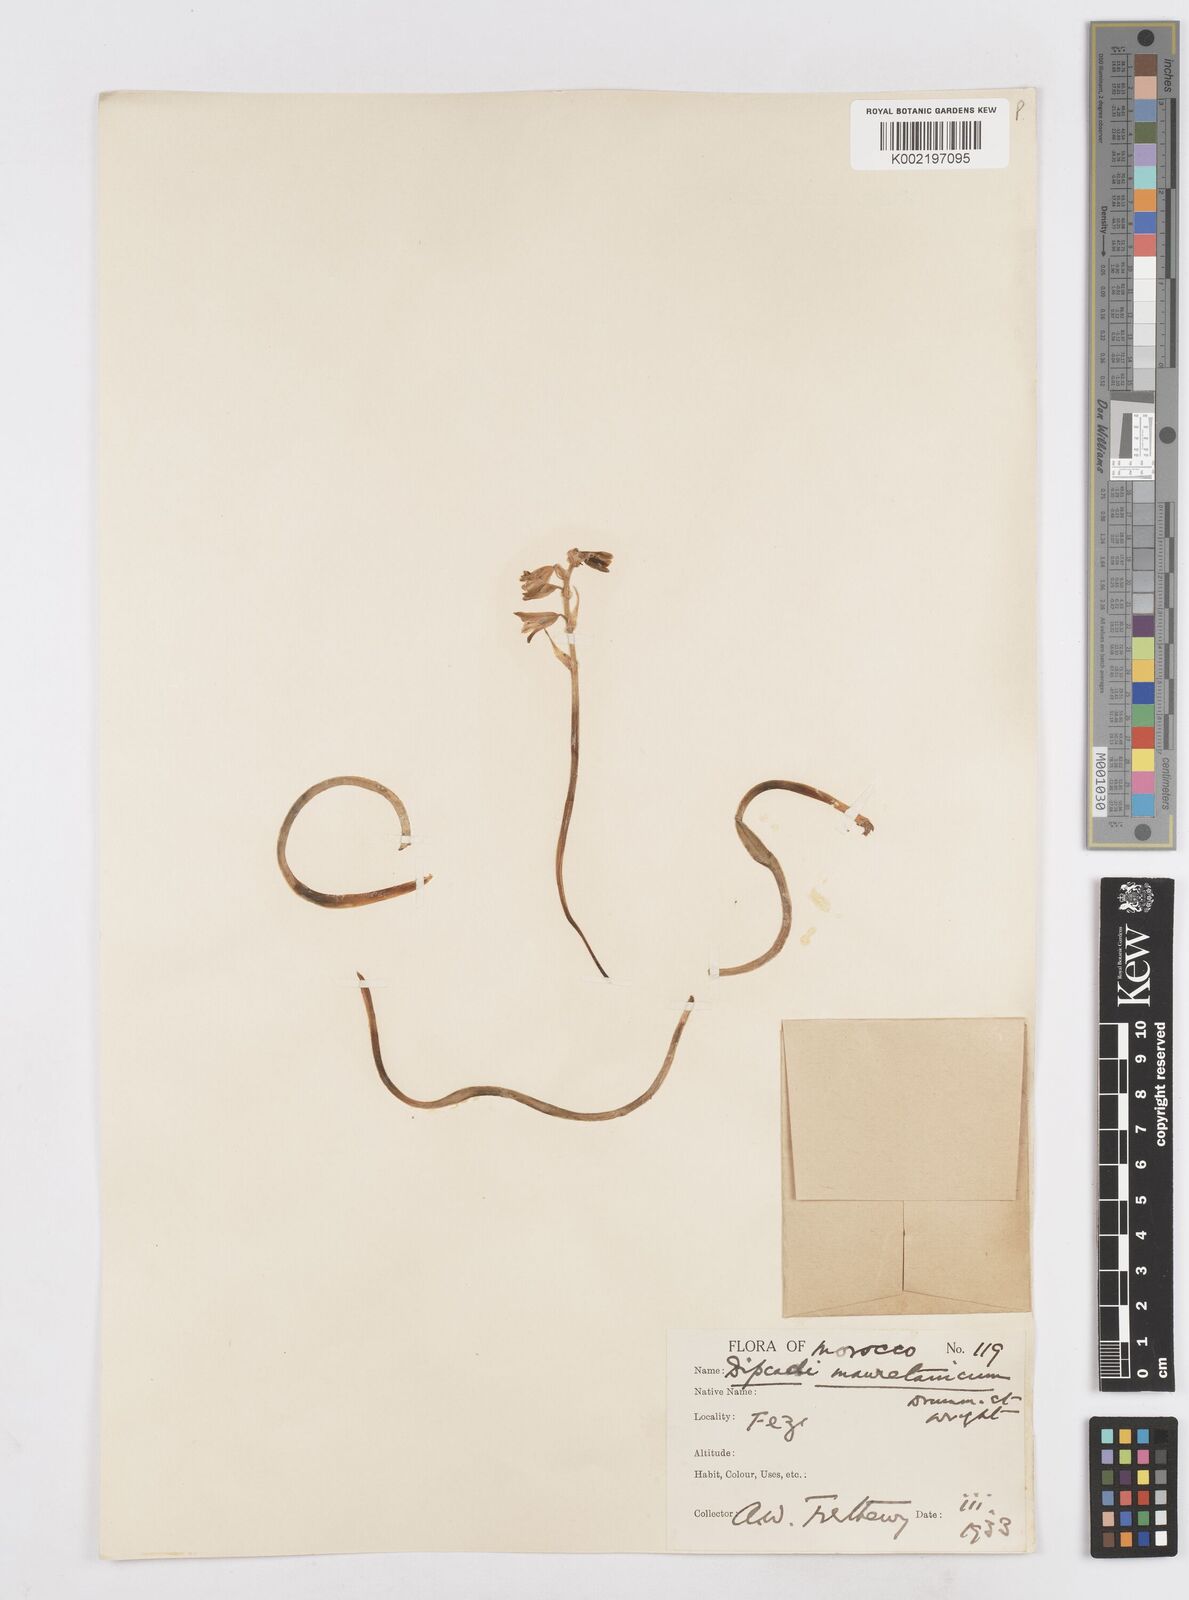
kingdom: Plantae
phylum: Tracheophyta
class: Liliopsida
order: Asparagales
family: Asparagaceae
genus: Dipcadi
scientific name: Dipcadi serotinum
